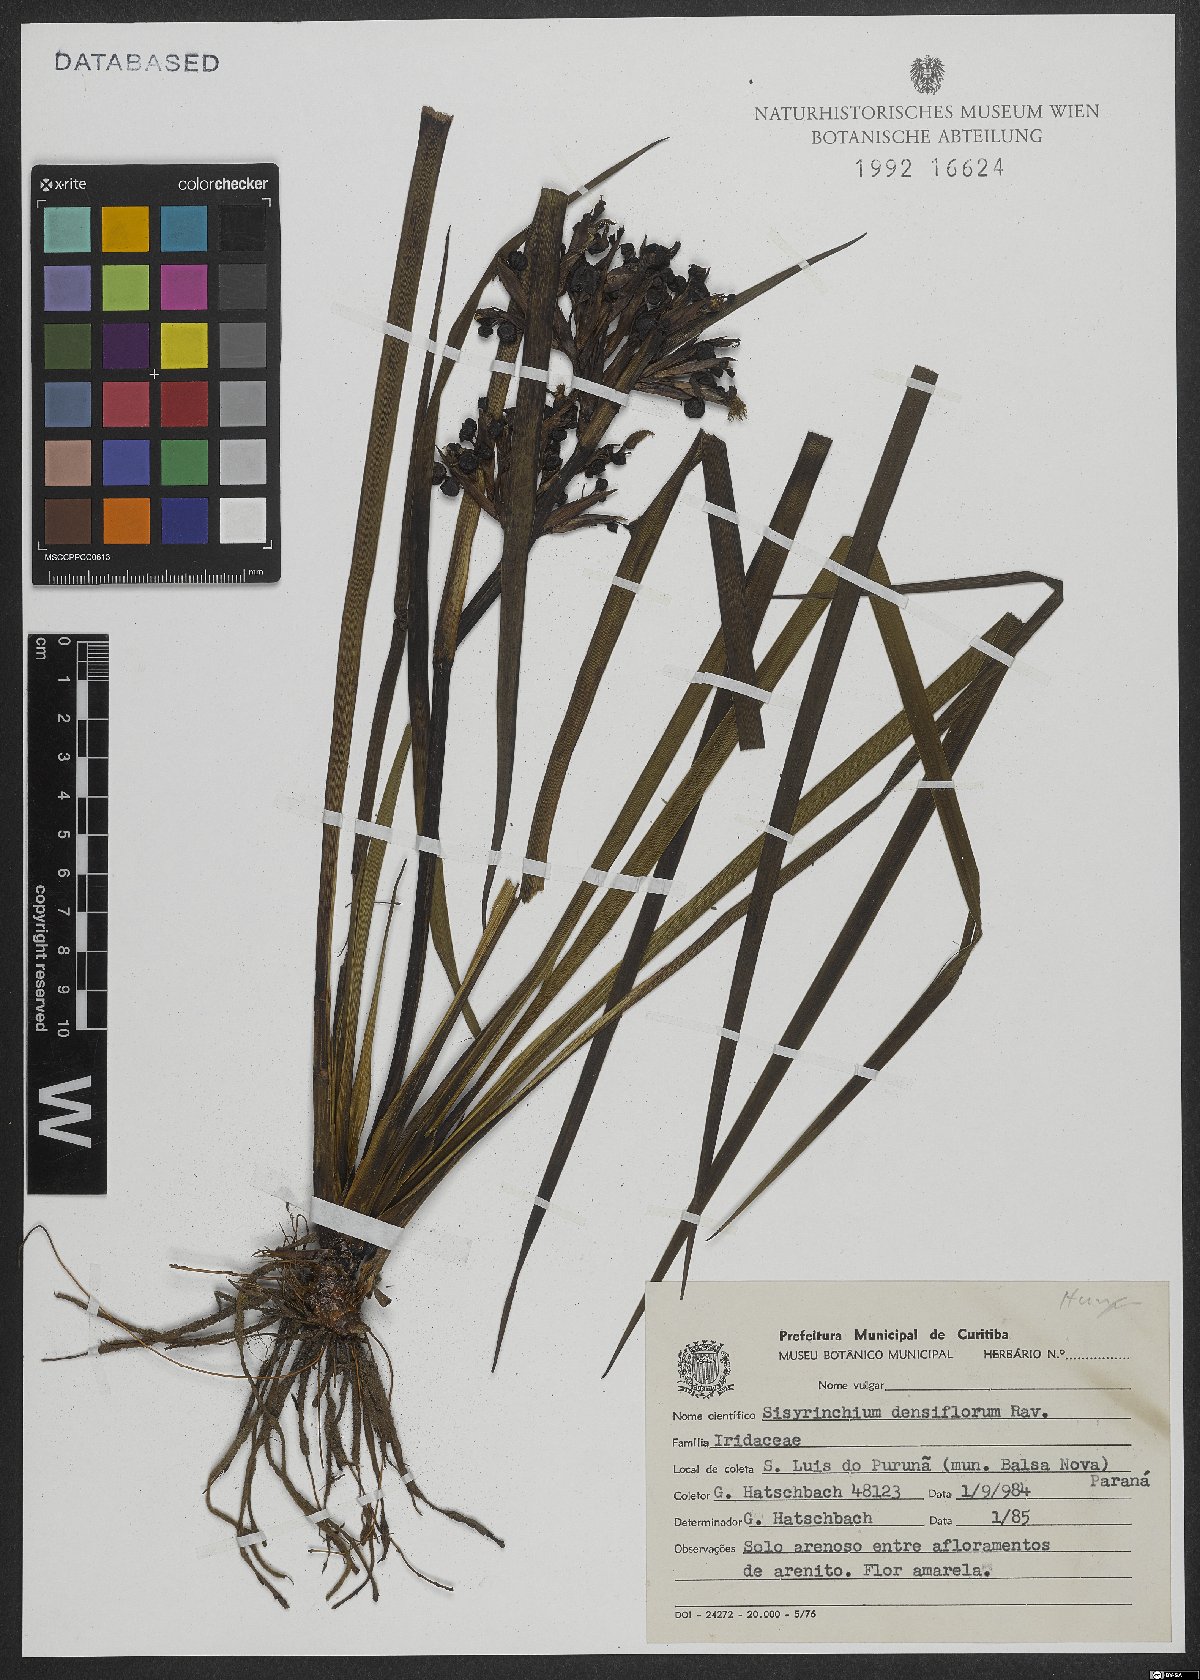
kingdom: Plantae
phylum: Tracheophyta
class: Liliopsida
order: Asparagales
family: Iridaceae
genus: Sisyrinchium
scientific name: Sisyrinchium densiflorum
